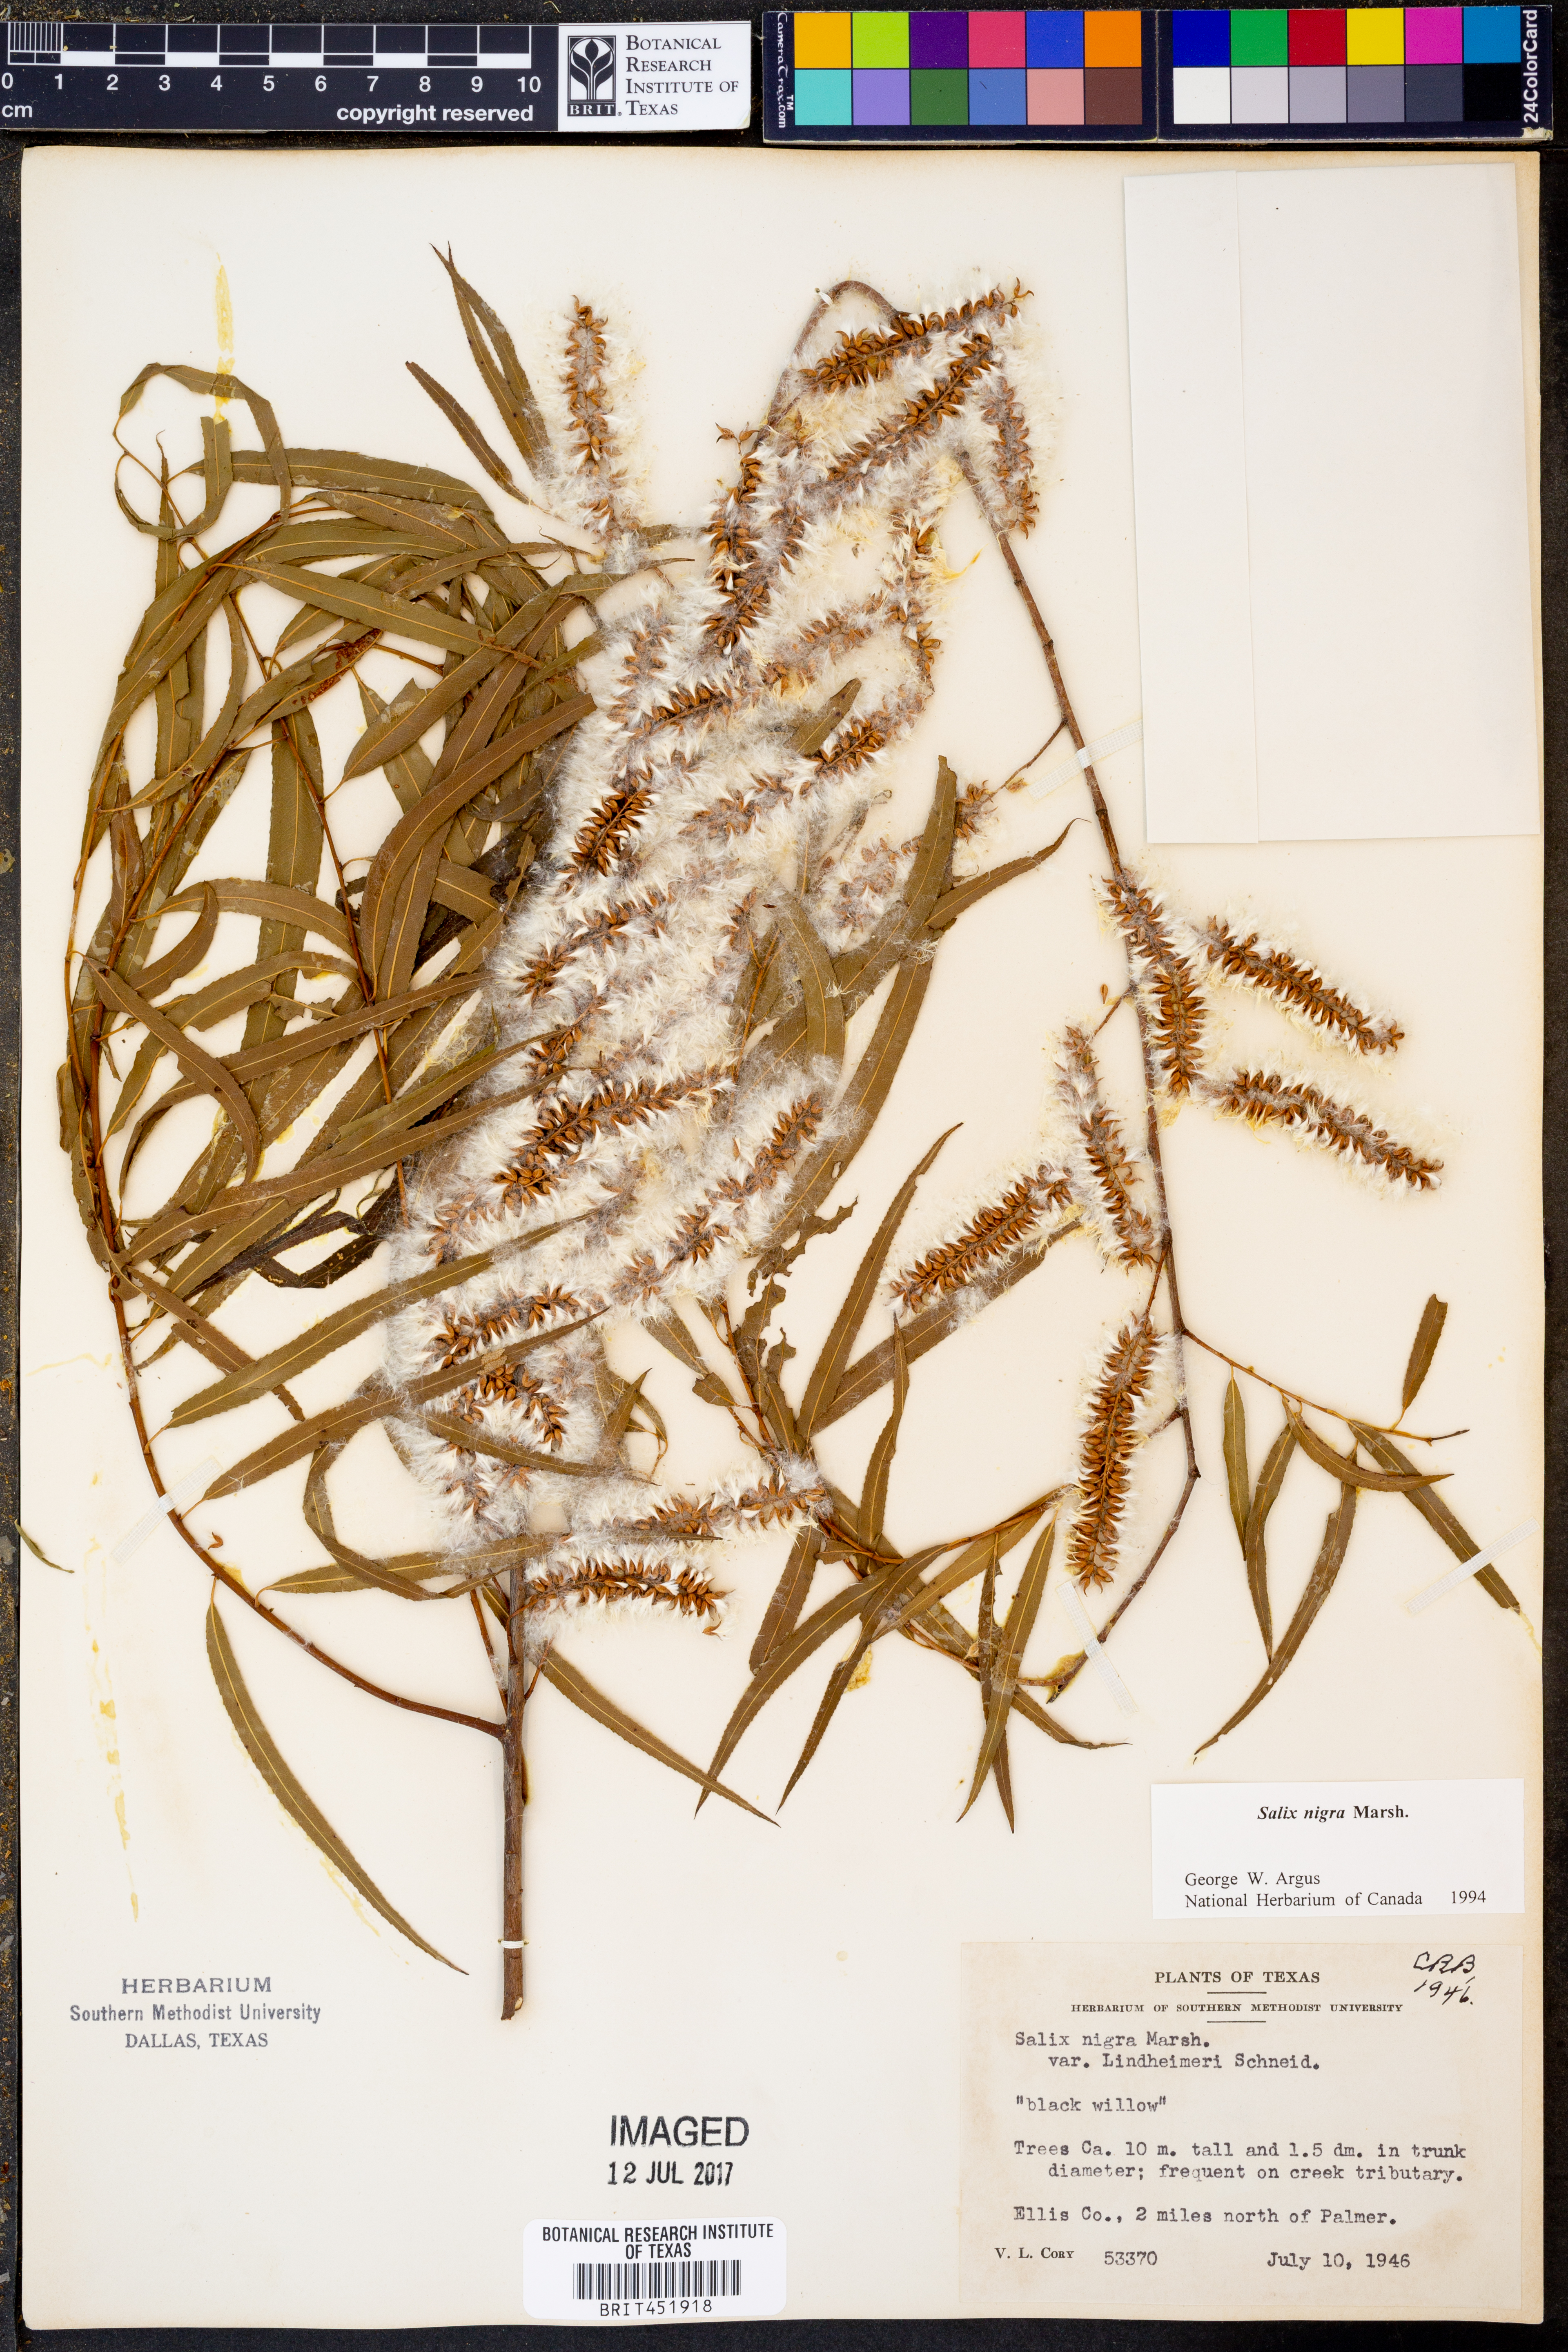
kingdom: Plantae
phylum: Tracheophyta
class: Magnoliopsida
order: Malpighiales
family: Salicaceae
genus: Salix
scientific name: Salix nigra
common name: Black willow
